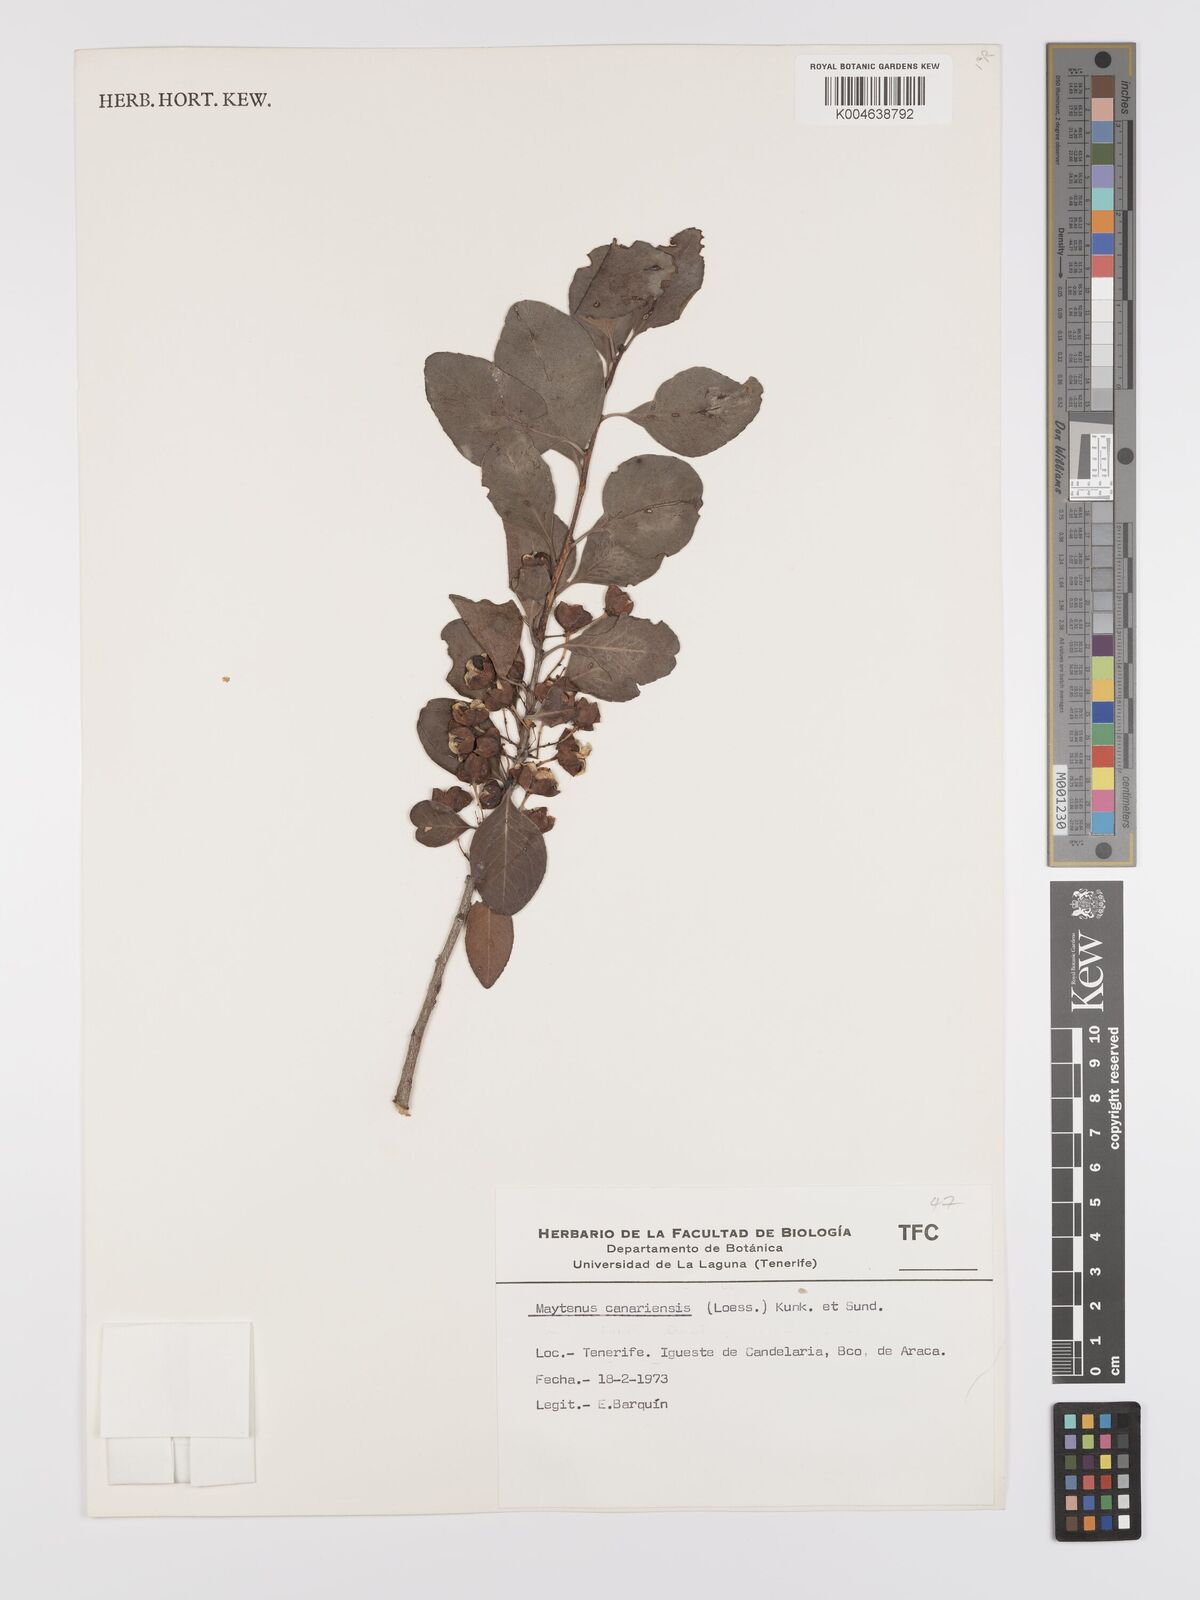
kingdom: Plantae
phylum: Tracheophyta
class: Magnoliopsida
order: Celastrales
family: Celastraceae
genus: Gymnosporia
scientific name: Gymnosporia cassinoides
